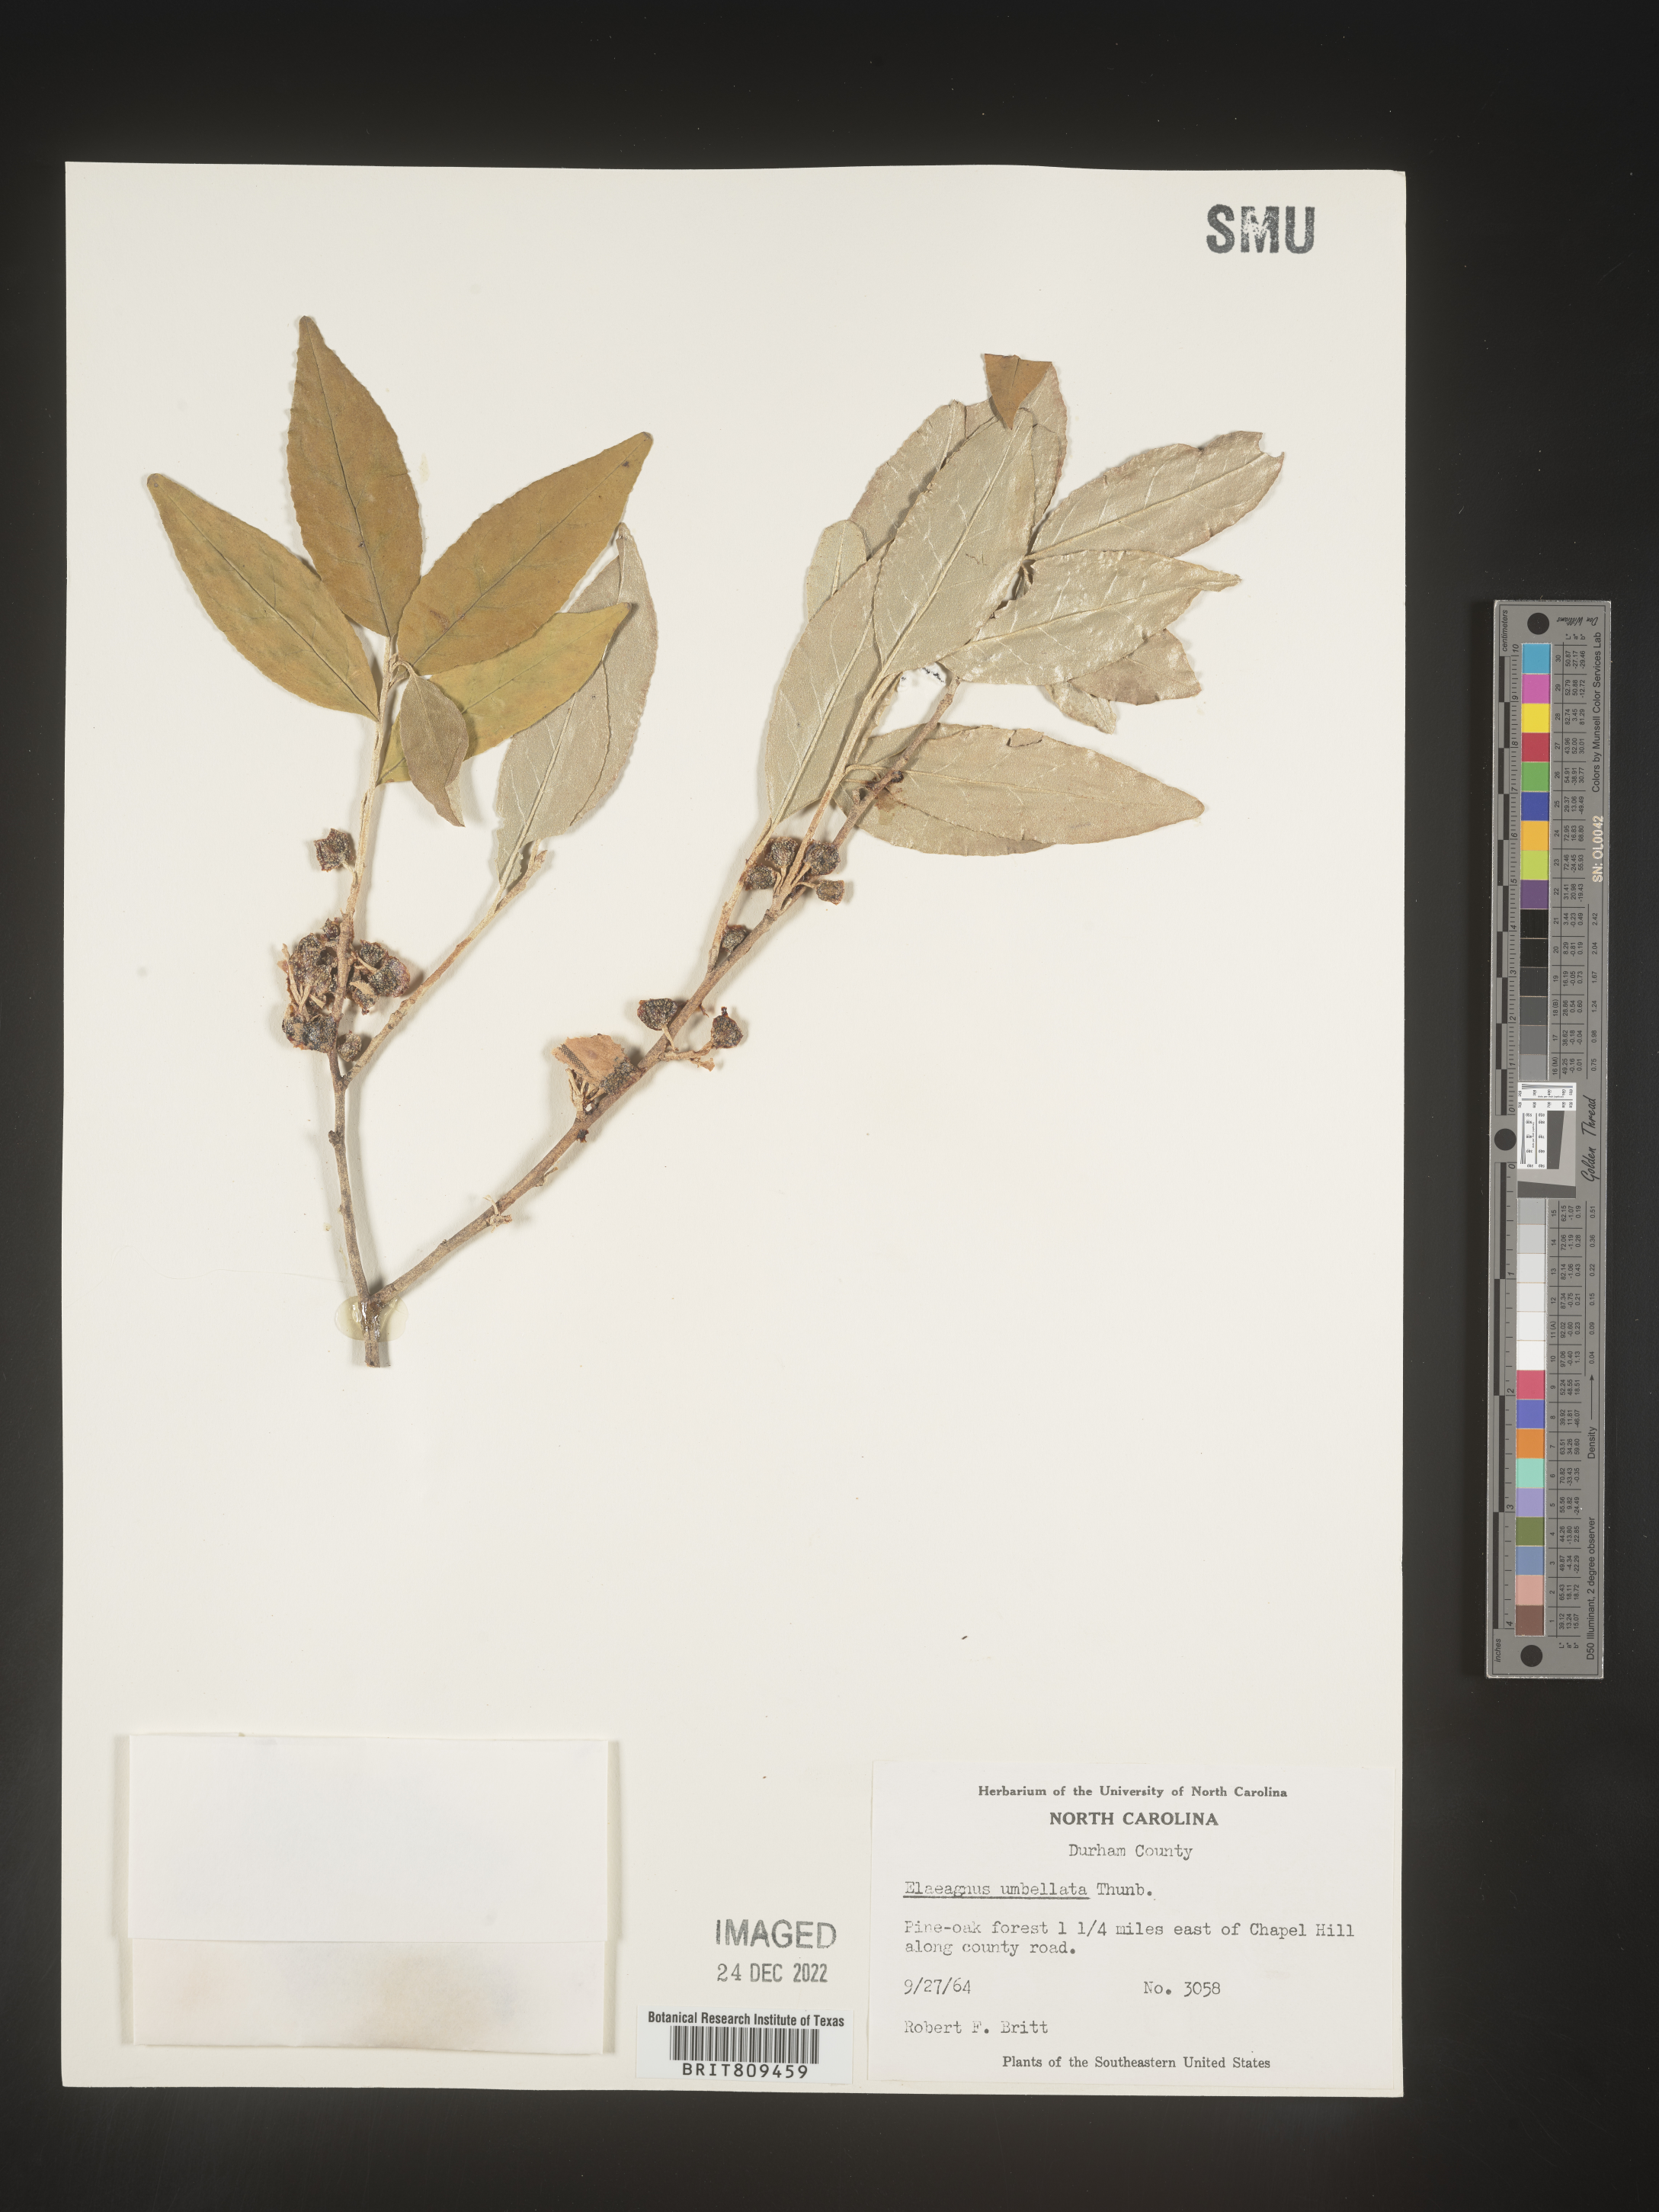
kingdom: Plantae
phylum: Tracheophyta
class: Magnoliopsida
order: Rosales
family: Elaeagnaceae
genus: Elaeagnus
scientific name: Elaeagnus
